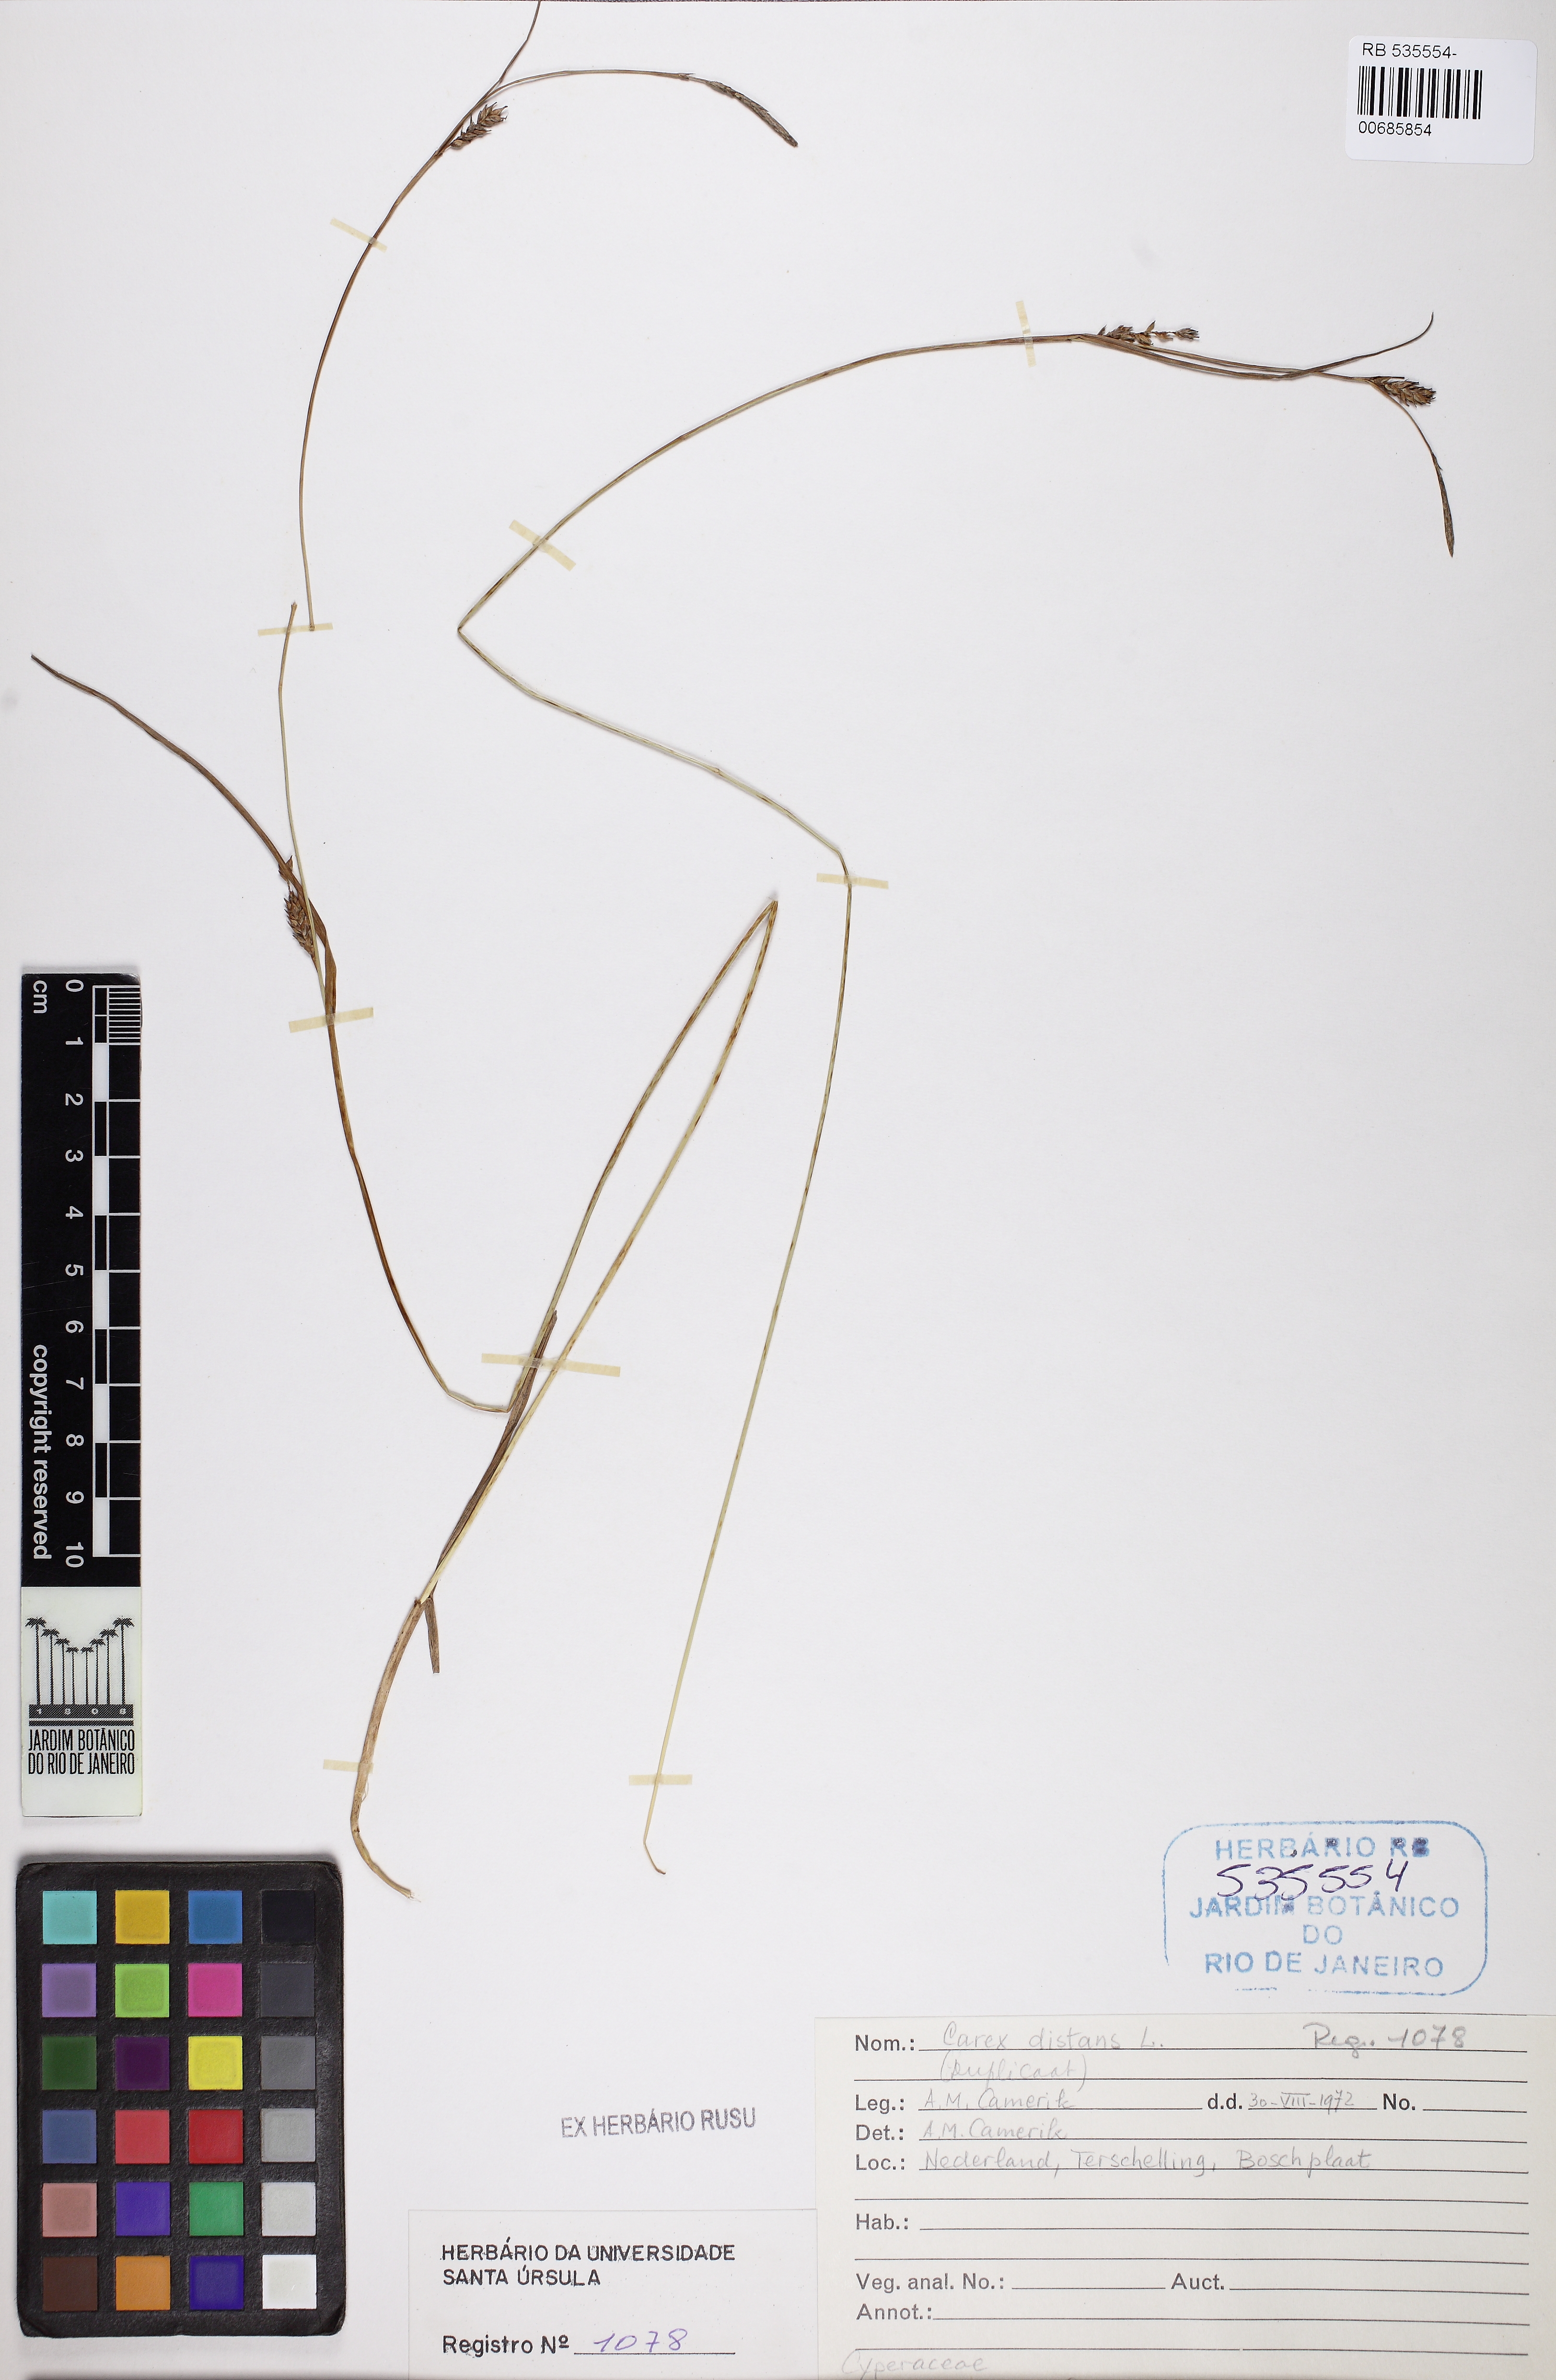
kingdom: Plantae
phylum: Tracheophyta
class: Liliopsida
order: Poales
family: Cyperaceae
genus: Carex
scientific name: Carex distans
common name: Distant sedge
